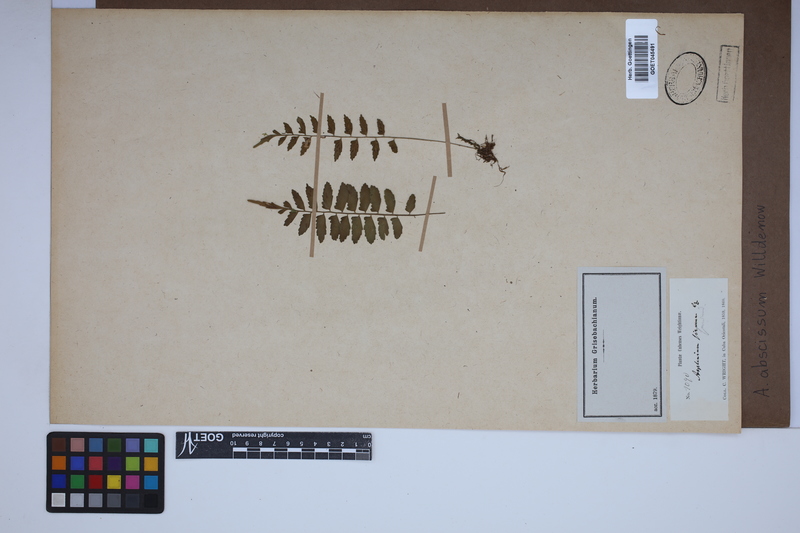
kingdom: Plantae
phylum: Tracheophyta
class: Polypodiopsida
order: Polypodiales
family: Aspleniaceae
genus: Asplenium
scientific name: Asplenium abscissum
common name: Cutleaf spleenwort
